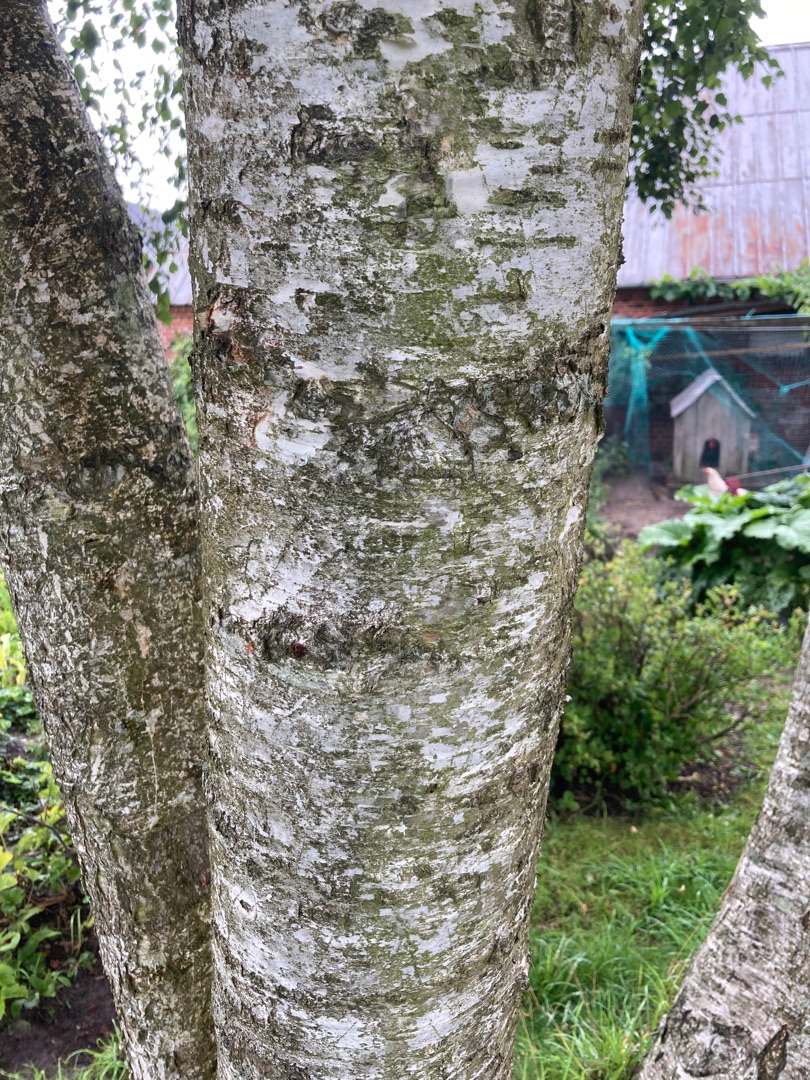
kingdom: Plantae
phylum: Tracheophyta
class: Magnoliopsida
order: Fagales
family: Betulaceae
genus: Betula
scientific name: Betula pendula
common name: Vorte-birk
